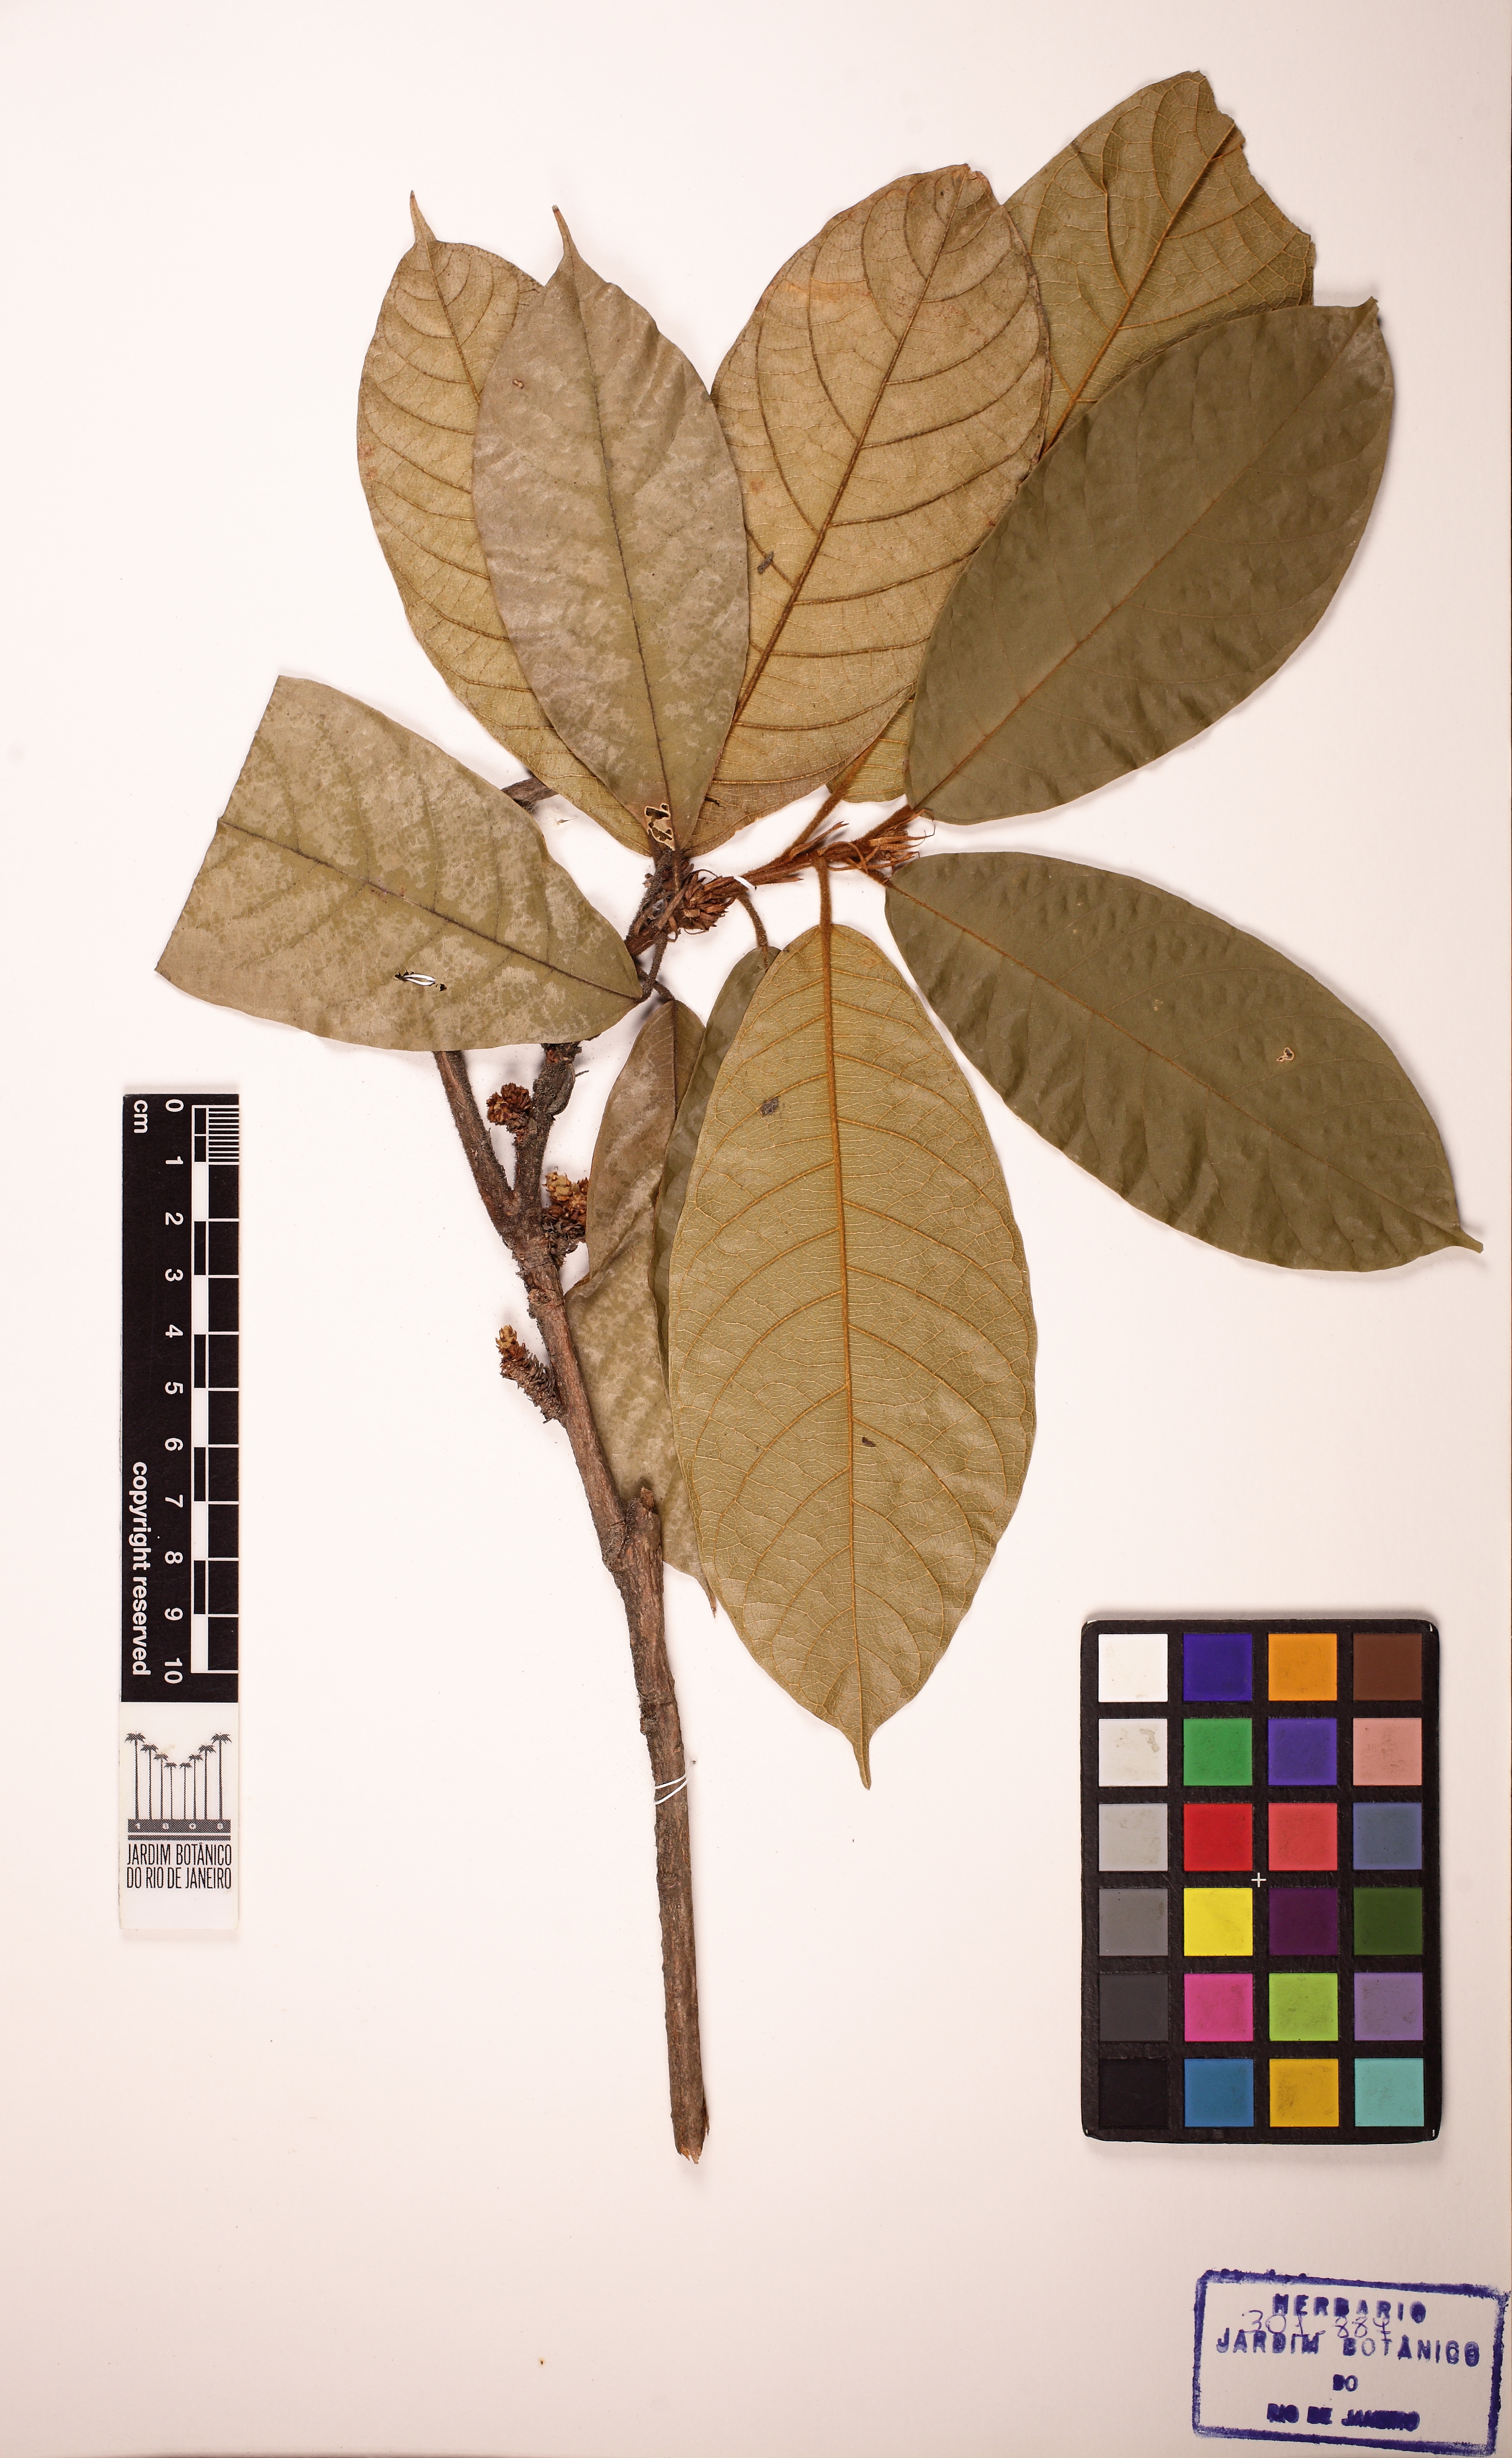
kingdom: Plantae
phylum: Tracheophyta
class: Magnoliopsida
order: Malvales
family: Malvaceae
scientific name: Malvaceae
